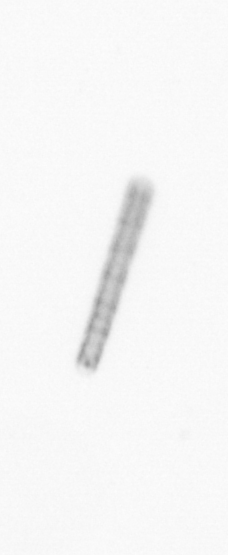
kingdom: Chromista
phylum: Ochrophyta
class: Bacillariophyceae
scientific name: Bacillariophyceae
